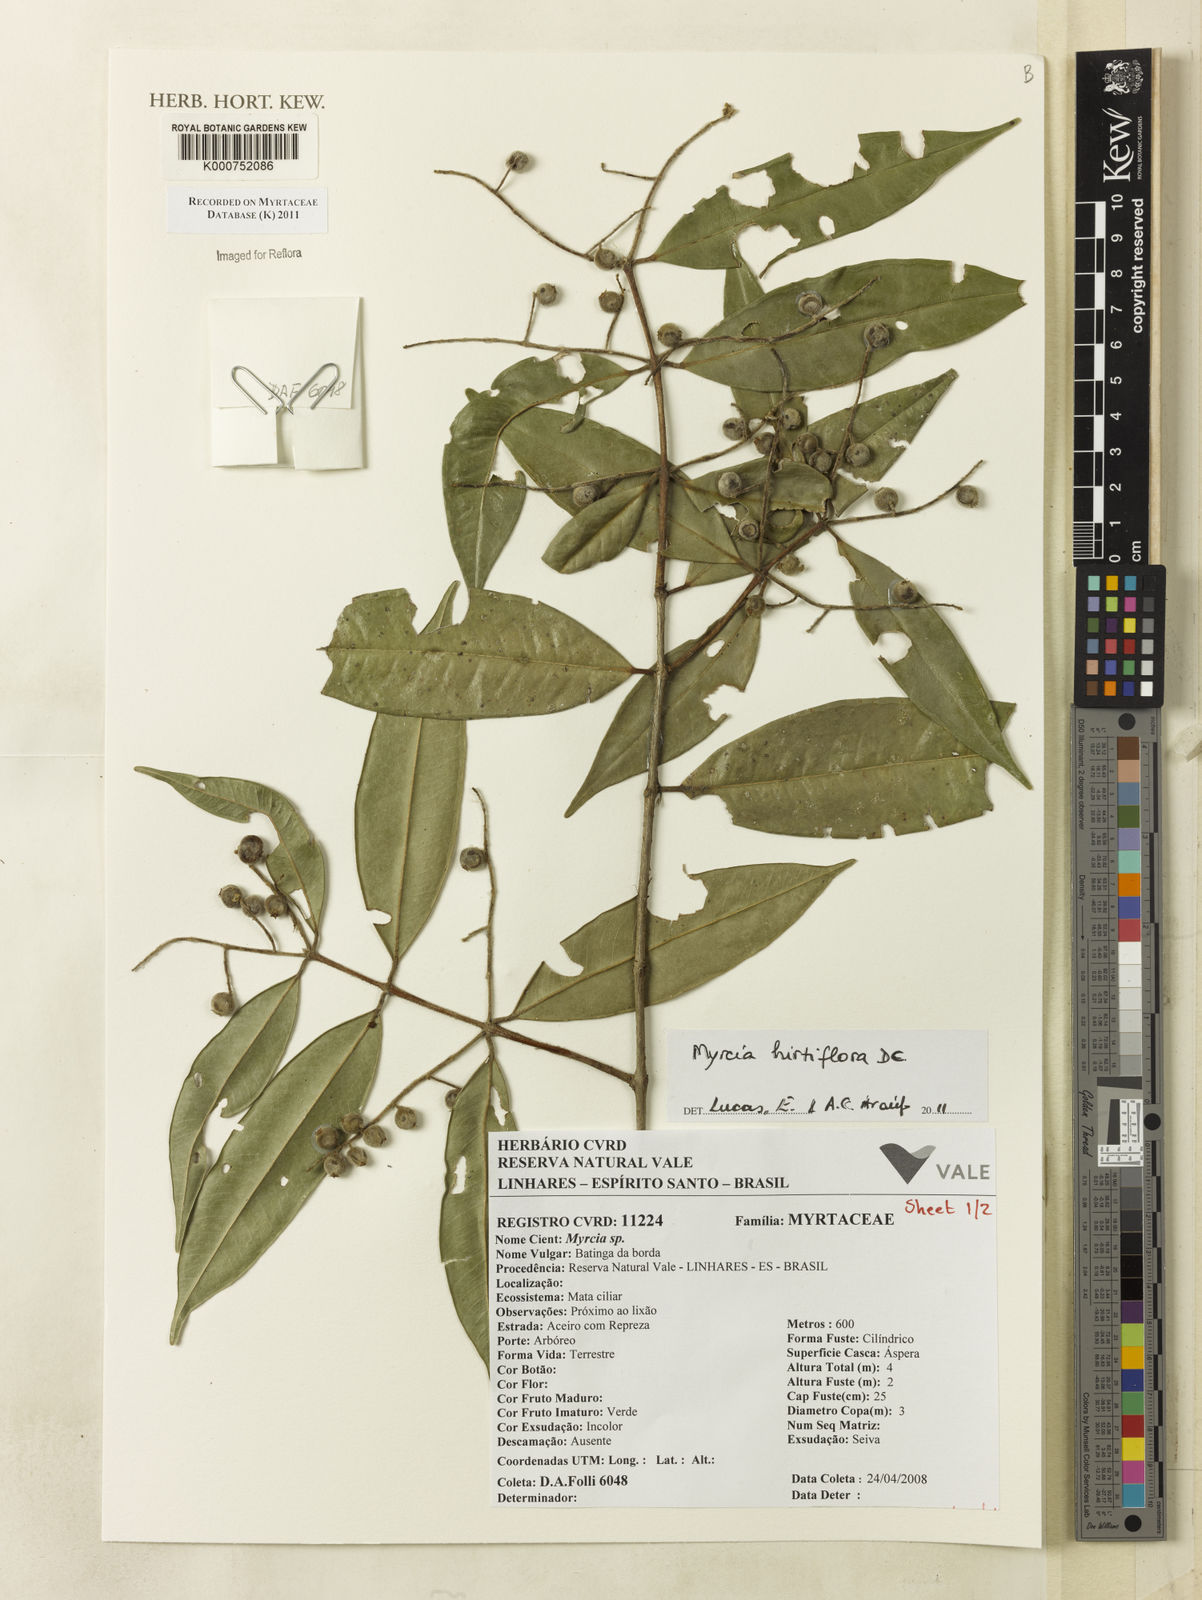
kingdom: Plantae
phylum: Tracheophyta
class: Magnoliopsida
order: Myrtales
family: Myrtaceae
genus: Myrcia
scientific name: Myrcia tomentosa
